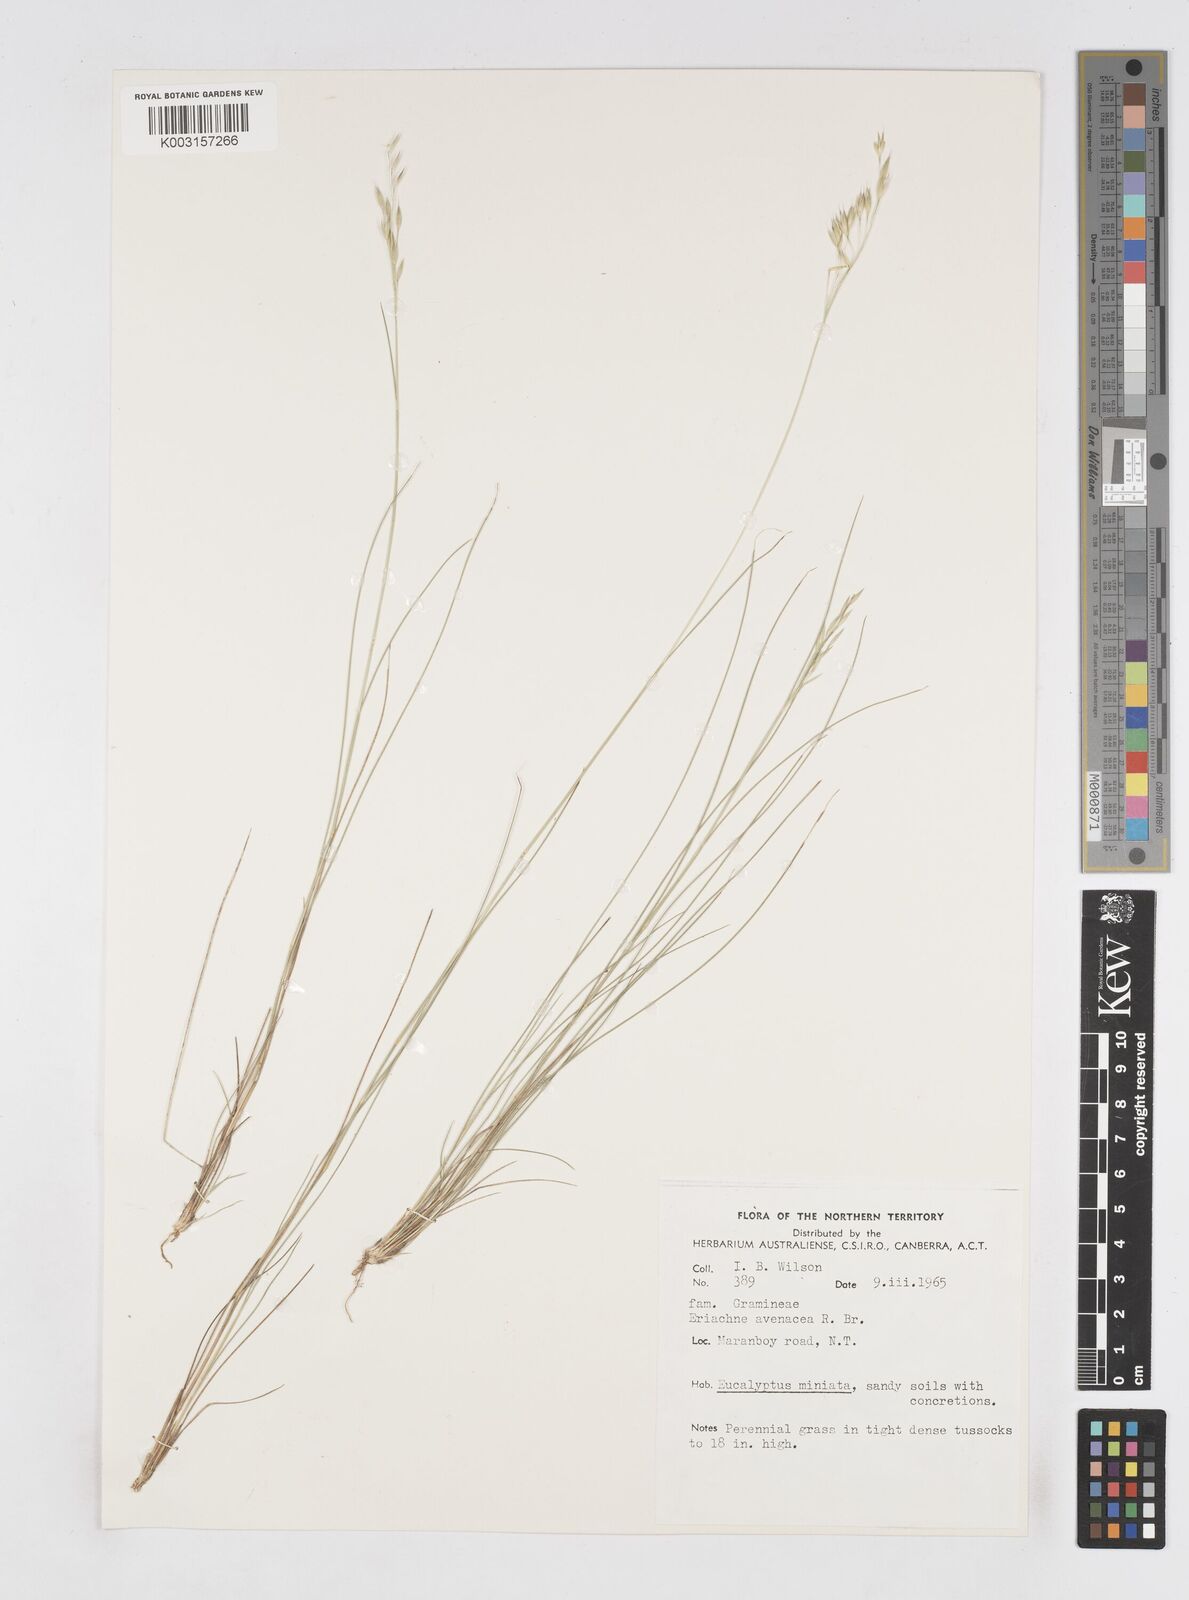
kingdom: Plantae
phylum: Tracheophyta
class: Liliopsida
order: Poales
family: Poaceae
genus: Eriachne
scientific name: Eriachne avenacea
